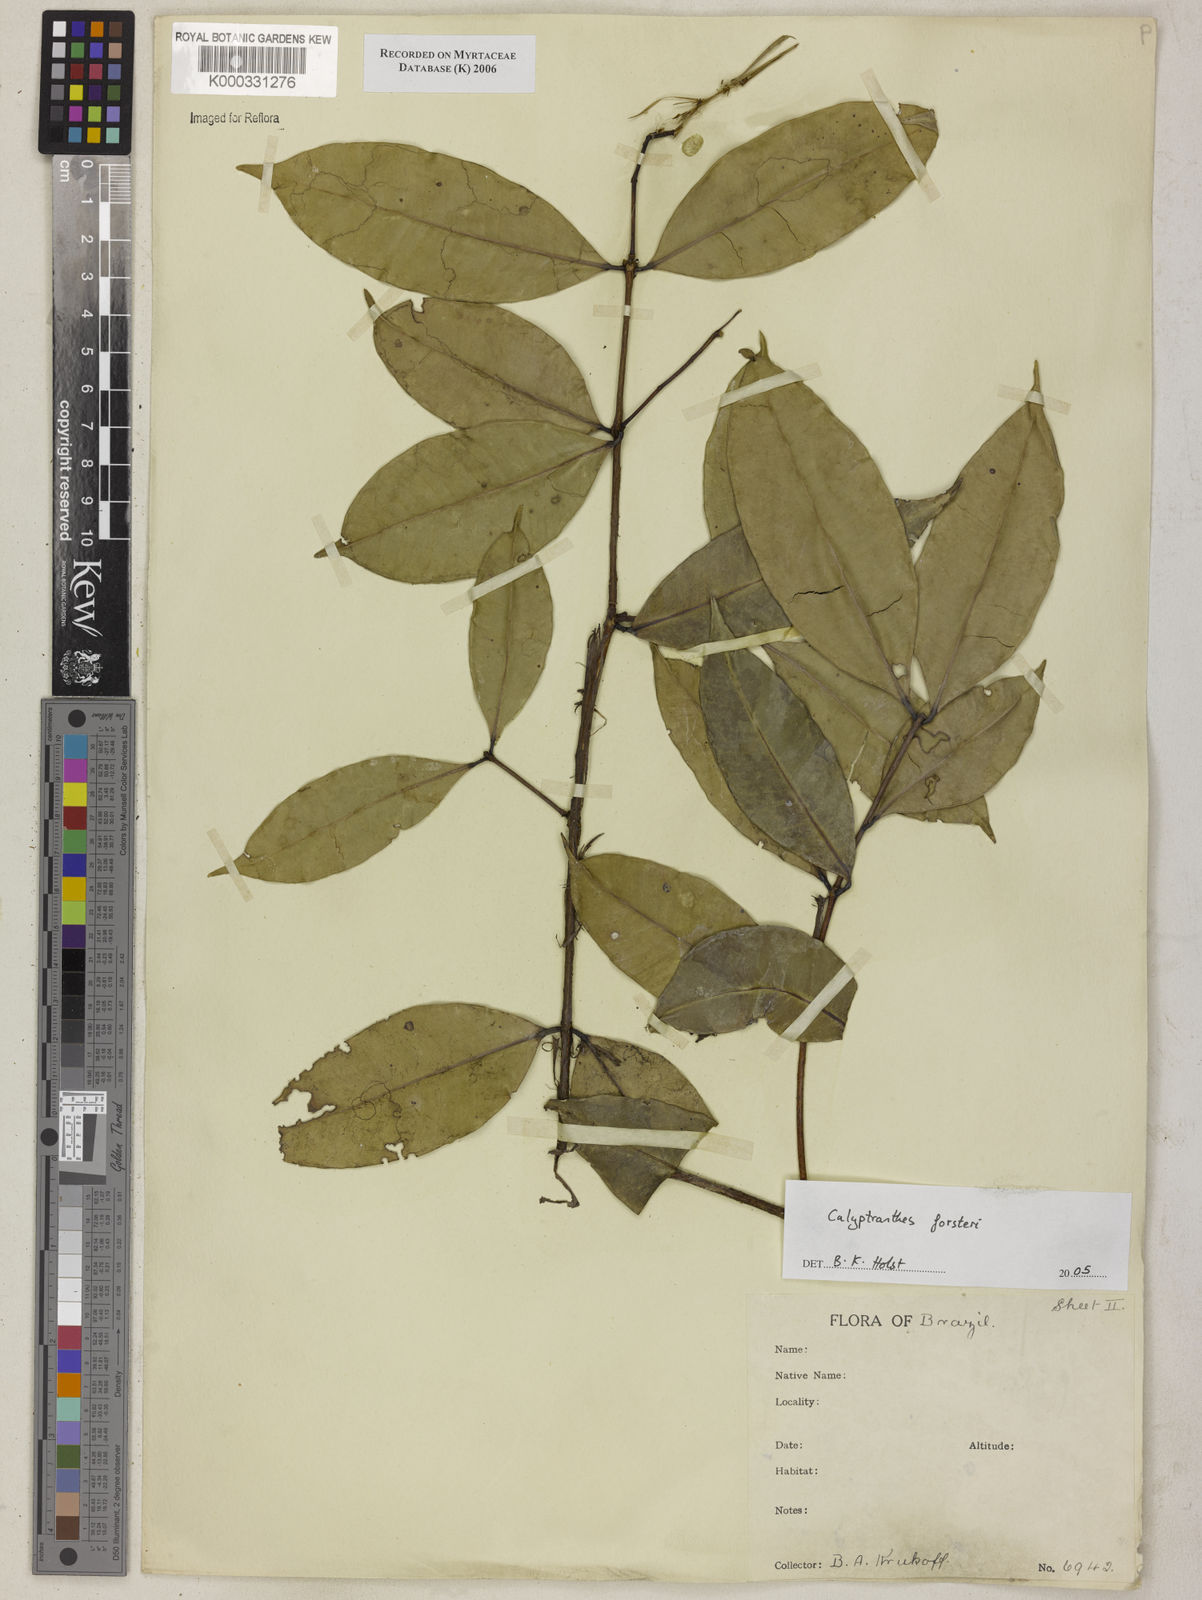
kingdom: Plantae
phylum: Tracheophyta
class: Magnoliopsida
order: Myrtales
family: Myrtaceae
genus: Myrcia
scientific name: Myrcia forsteri
